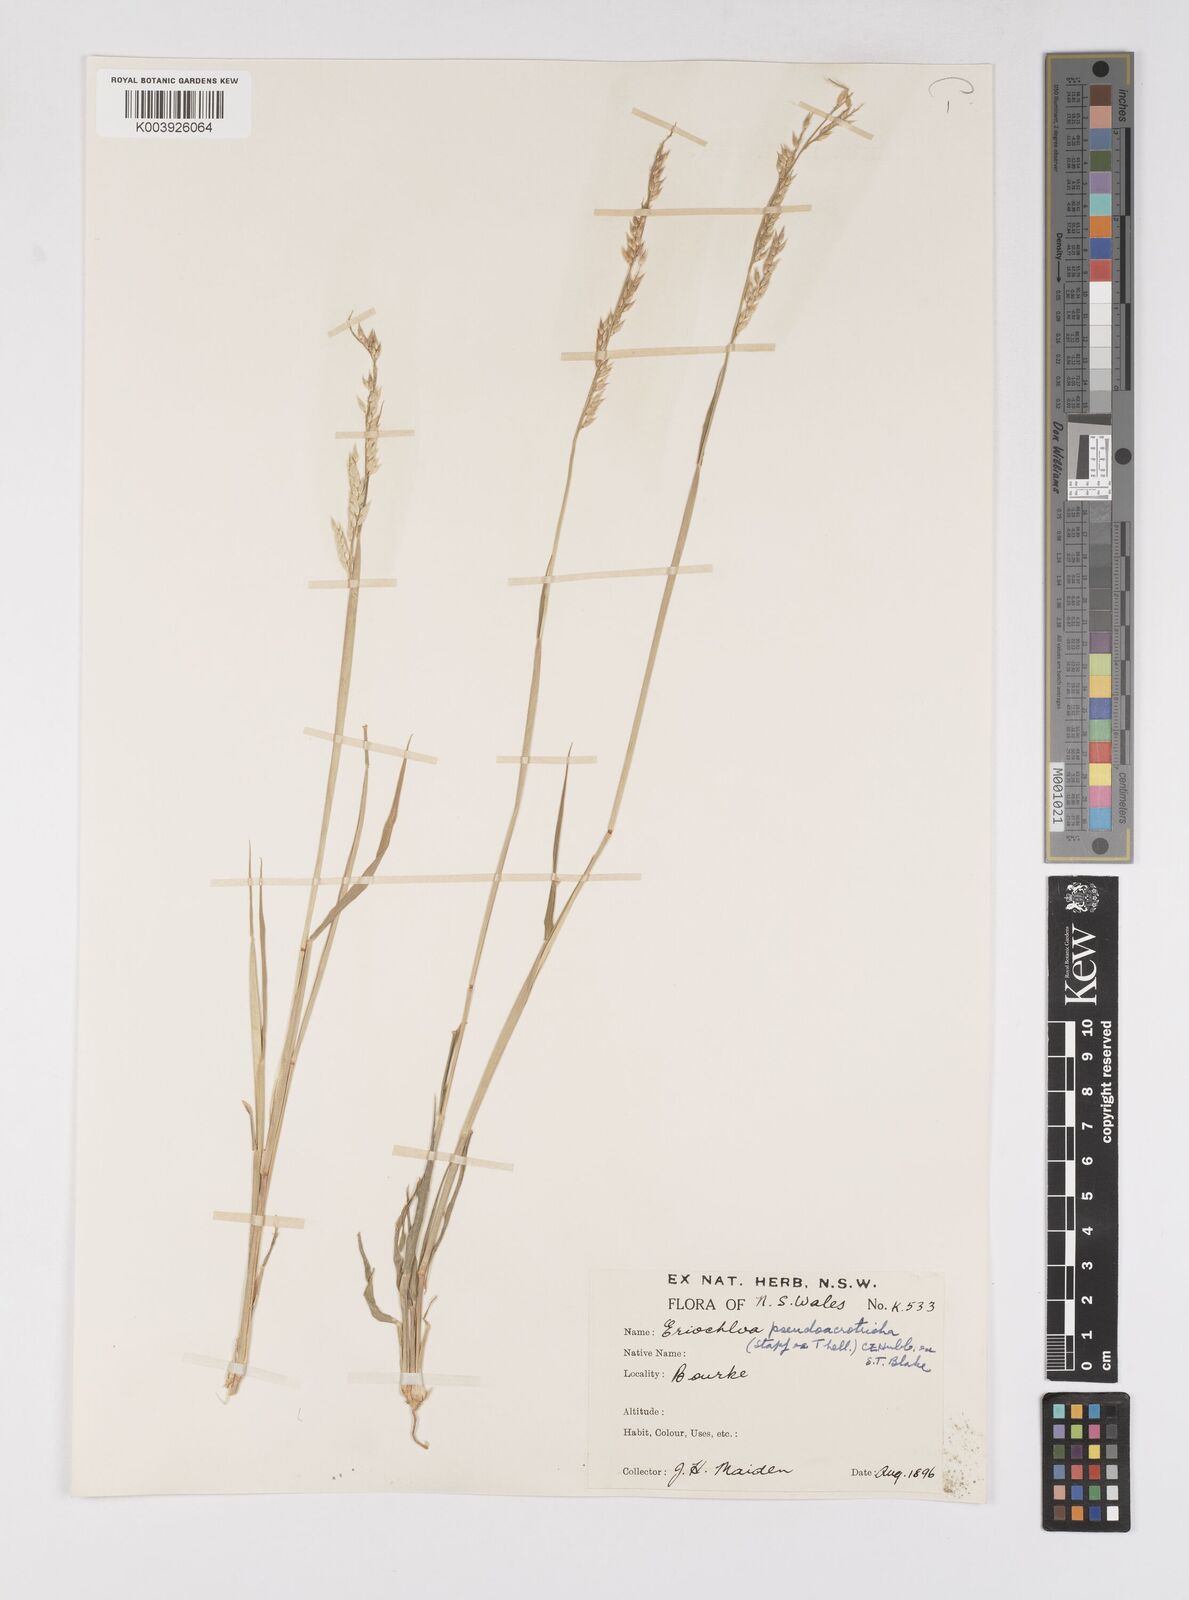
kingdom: Plantae
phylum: Tracheophyta
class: Liliopsida
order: Poales
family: Poaceae
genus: Eriochloa
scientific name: Eriochloa pseudoacrotricha
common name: Perennial cup-grass
